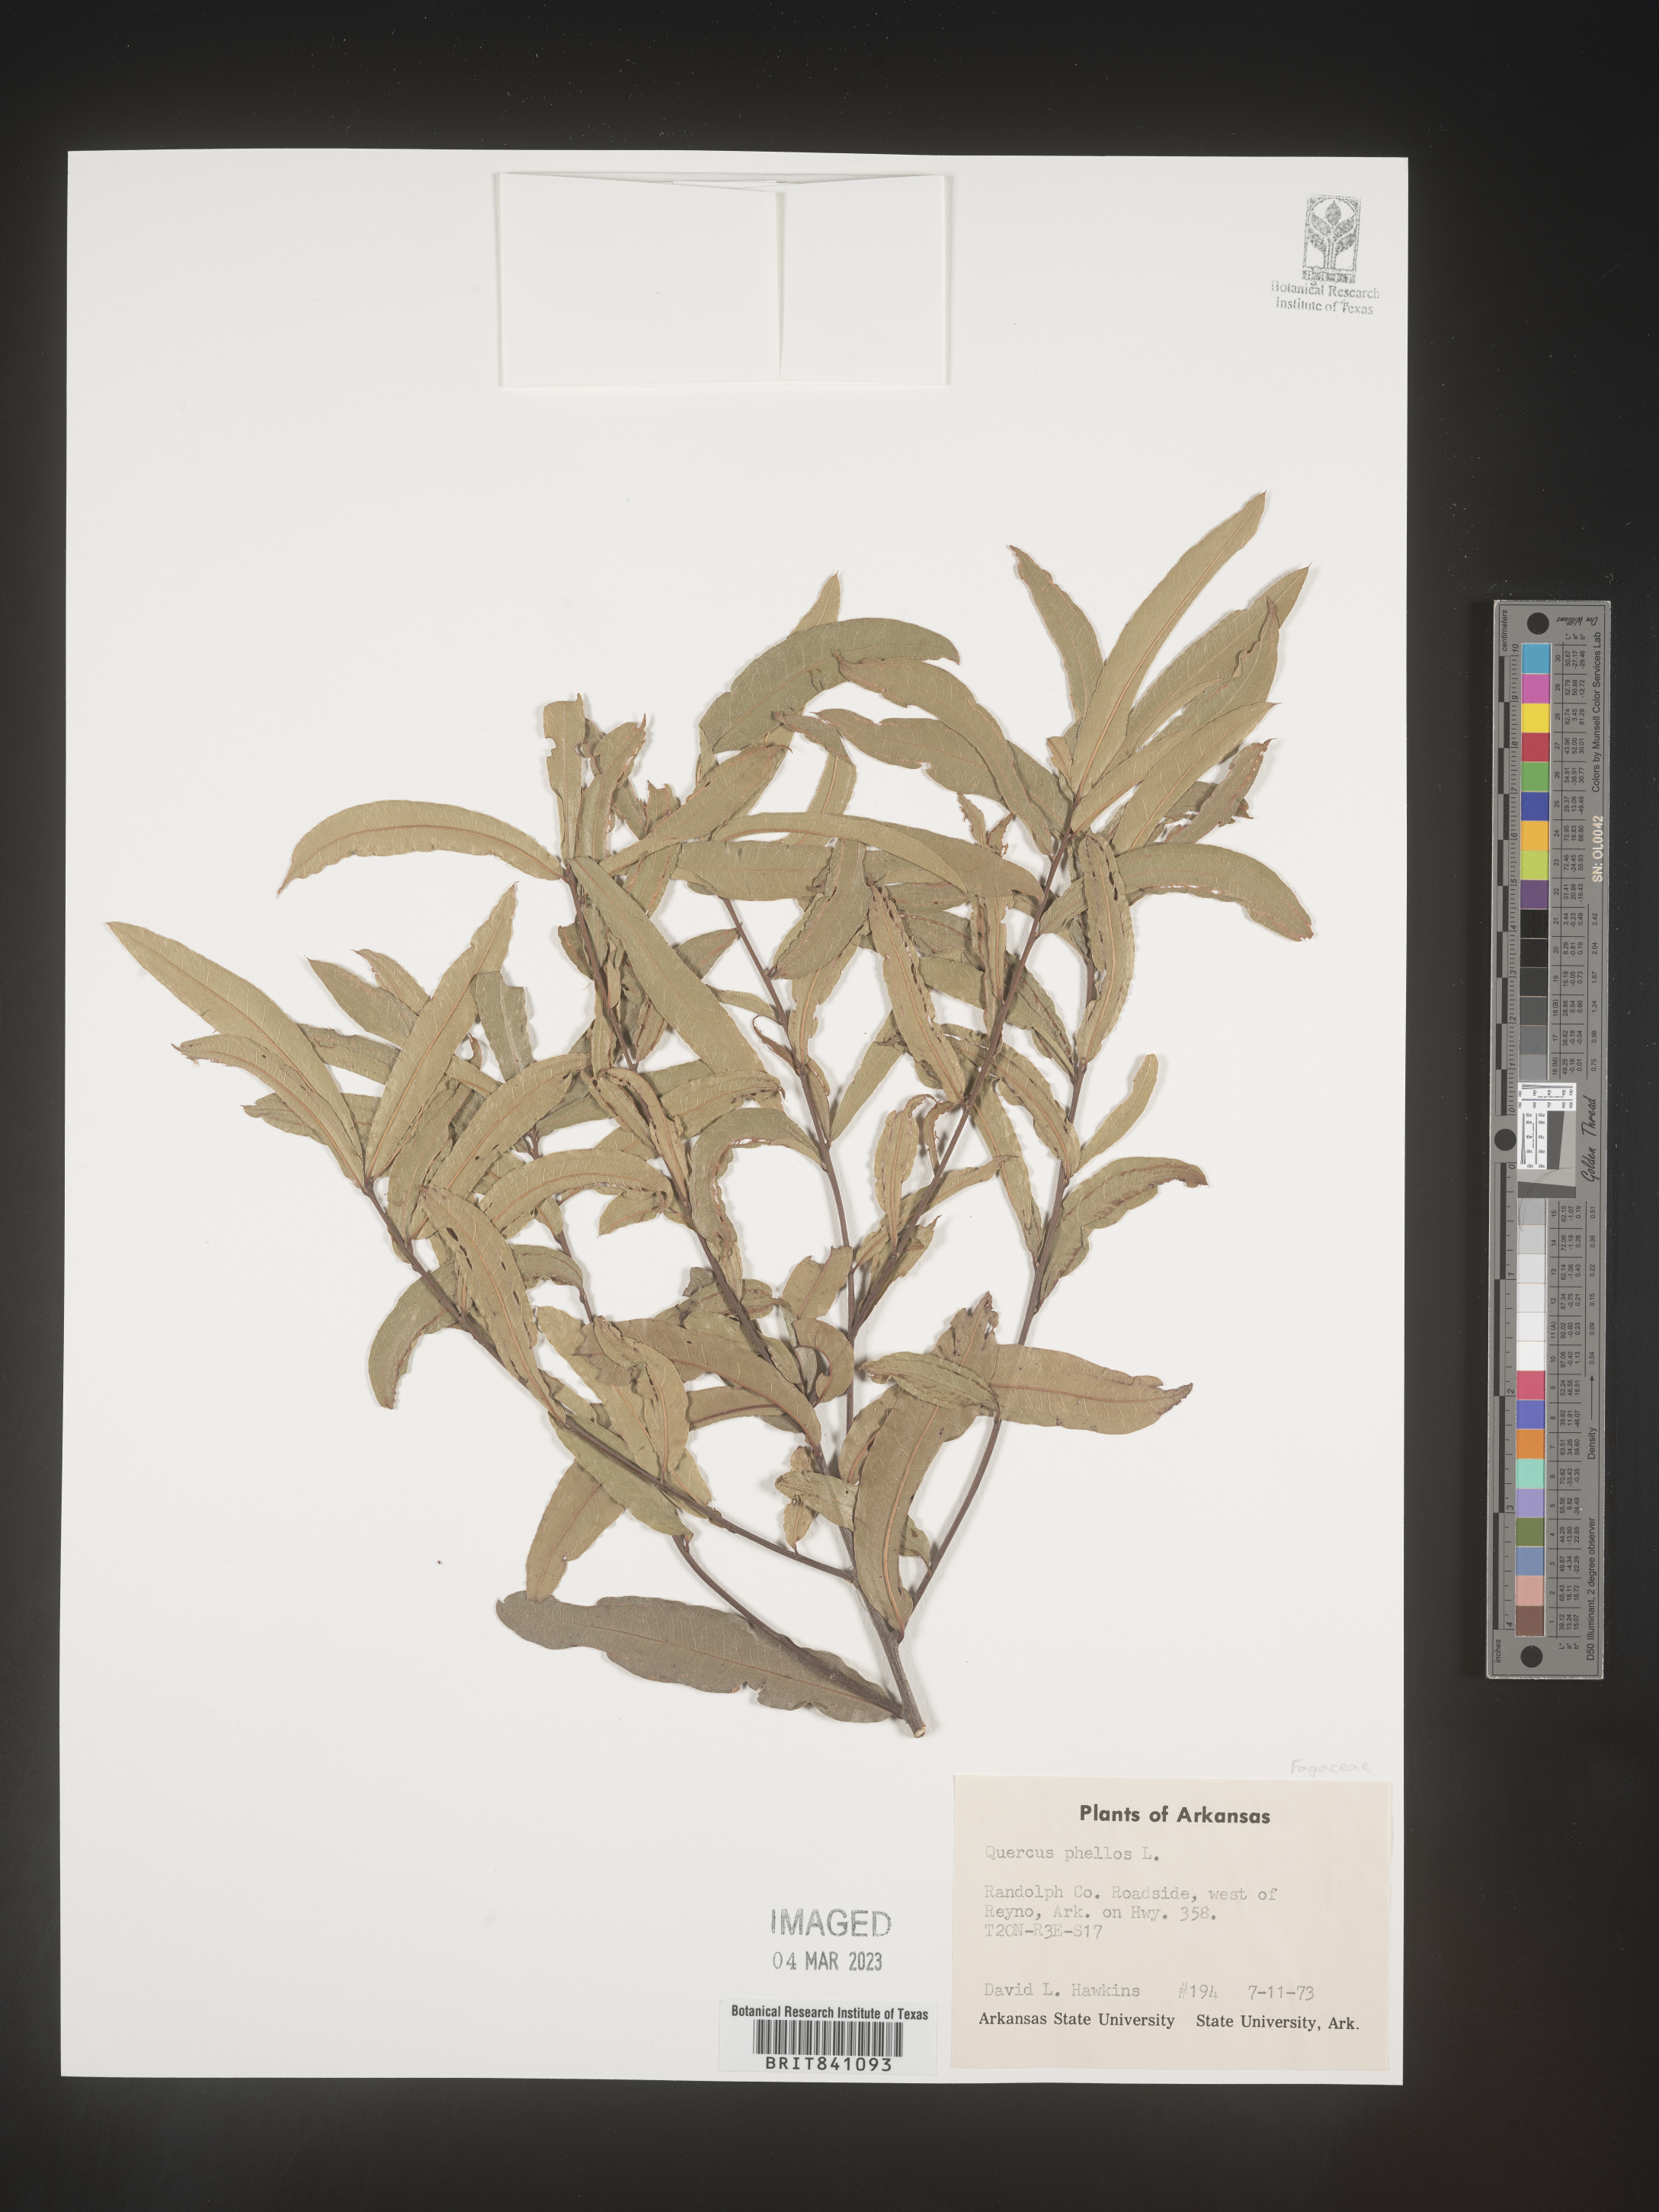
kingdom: Plantae
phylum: Tracheophyta
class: Magnoliopsida
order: Fagales
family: Fagaceae
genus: Quercus
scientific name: Quercus phellos
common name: Willow oak
